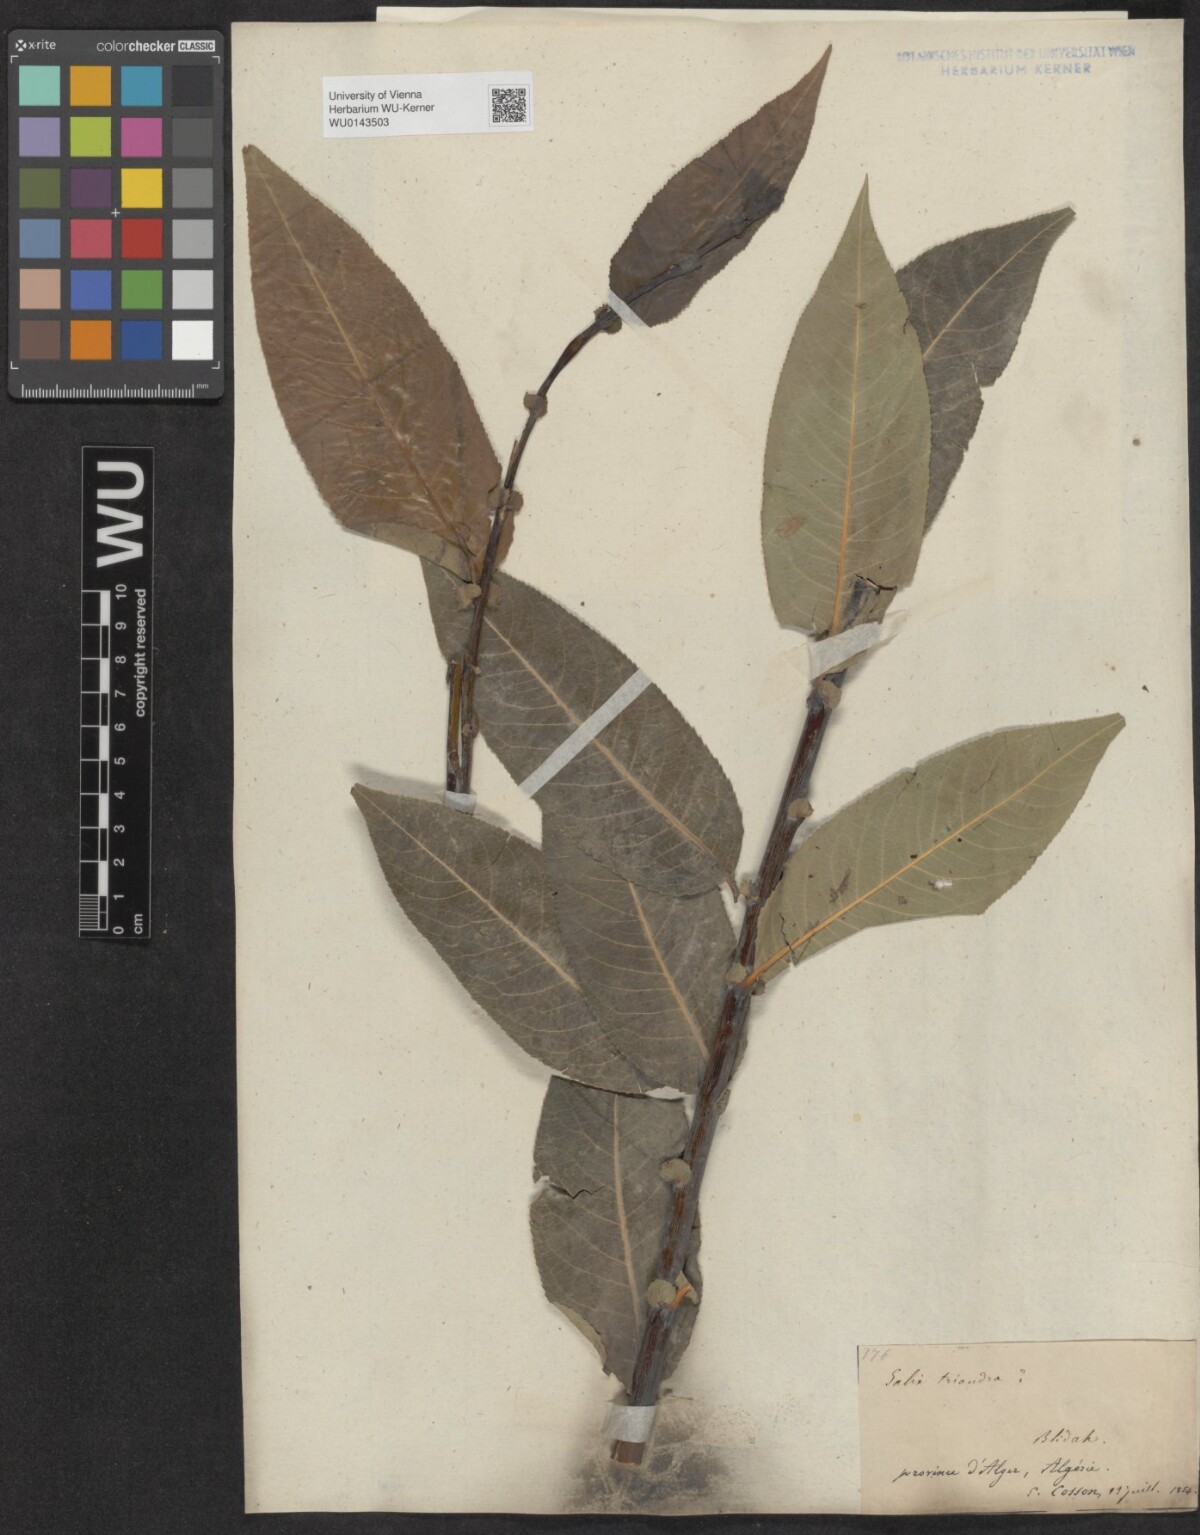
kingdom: Plantae
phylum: Tracheophyta
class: Magnoliopsida
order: Malpighiales
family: Salicaceae
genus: Salix
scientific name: Salix triandra
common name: Almond willow
